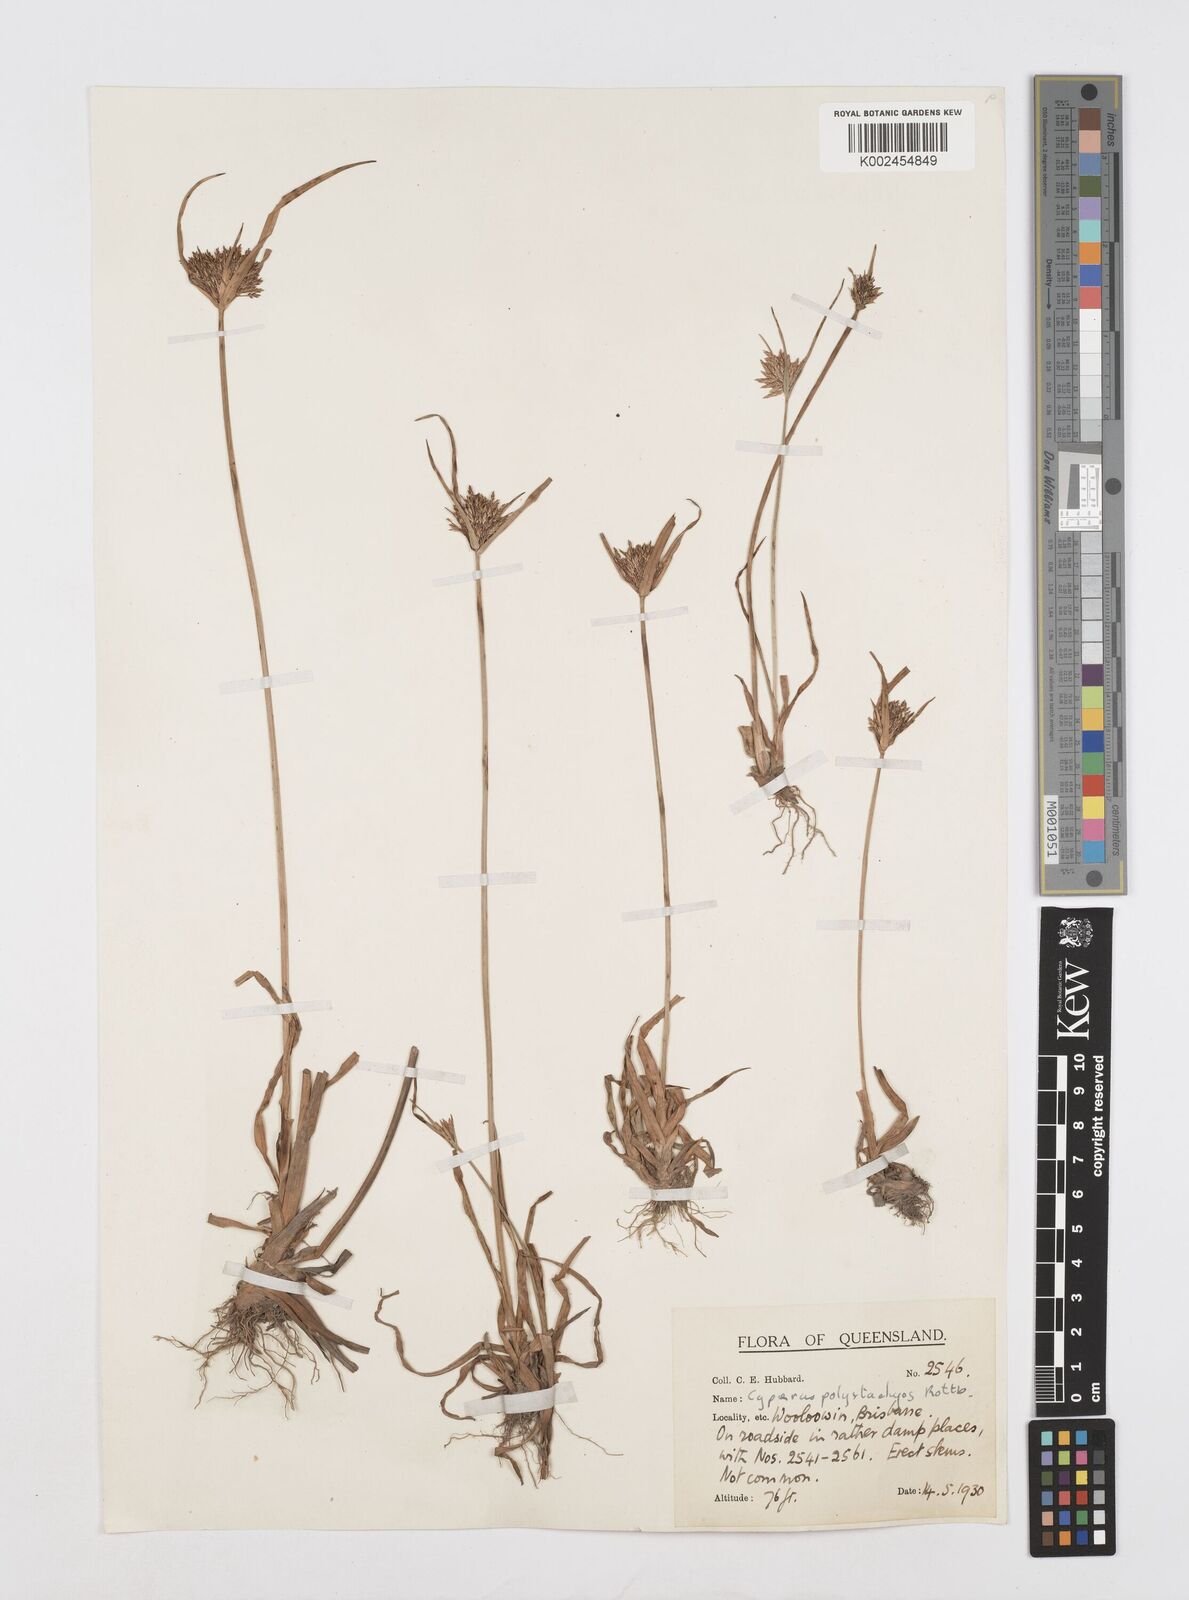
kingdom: Plantae
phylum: Tracheophyta
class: Liliopsida
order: Poales
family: Cyperaceae
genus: Cyperus
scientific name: Cyperus polystachyos
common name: Bunchy flat sedge
